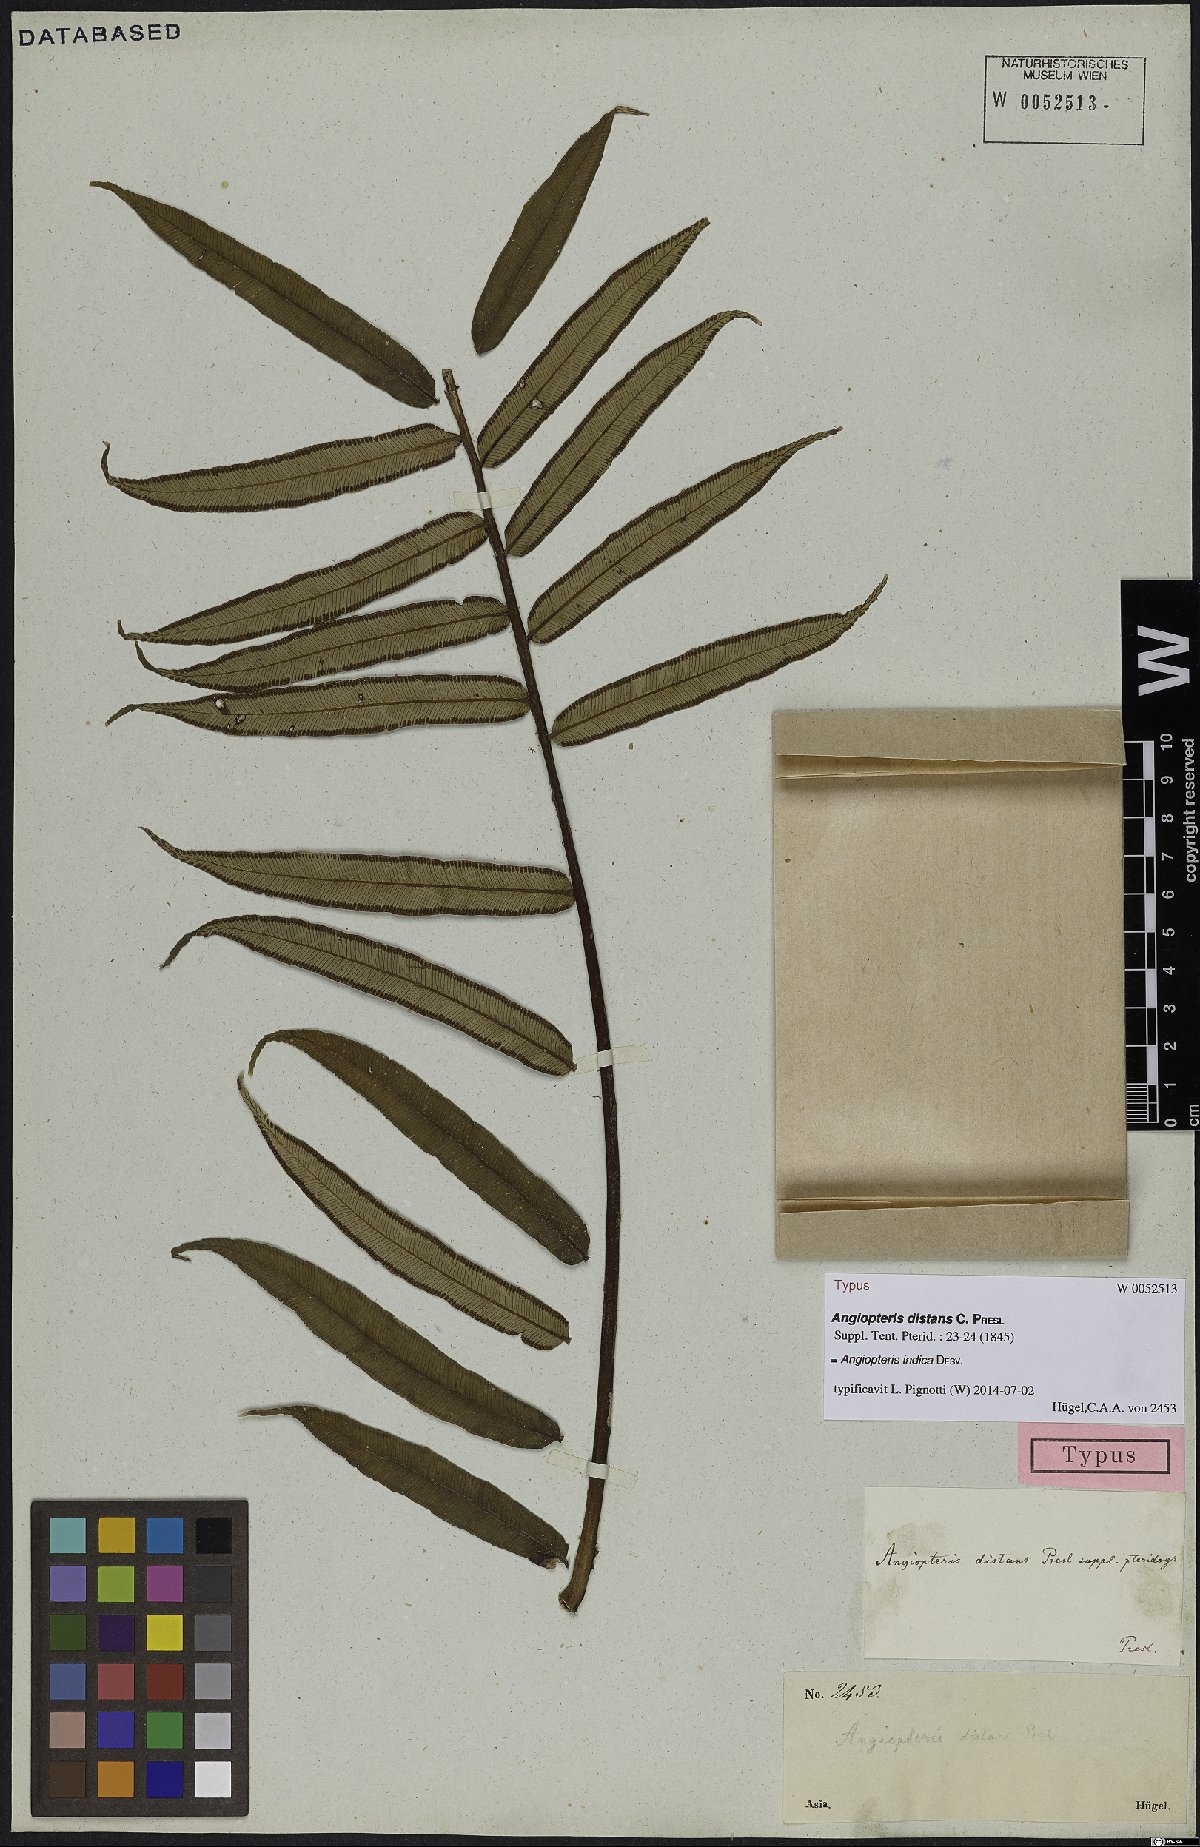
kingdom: Plantae
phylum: Tracheophyta
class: Polypodiopsida
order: Marattiales
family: Marattiaceae
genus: Angiopteris
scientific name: Angiopteris indica
